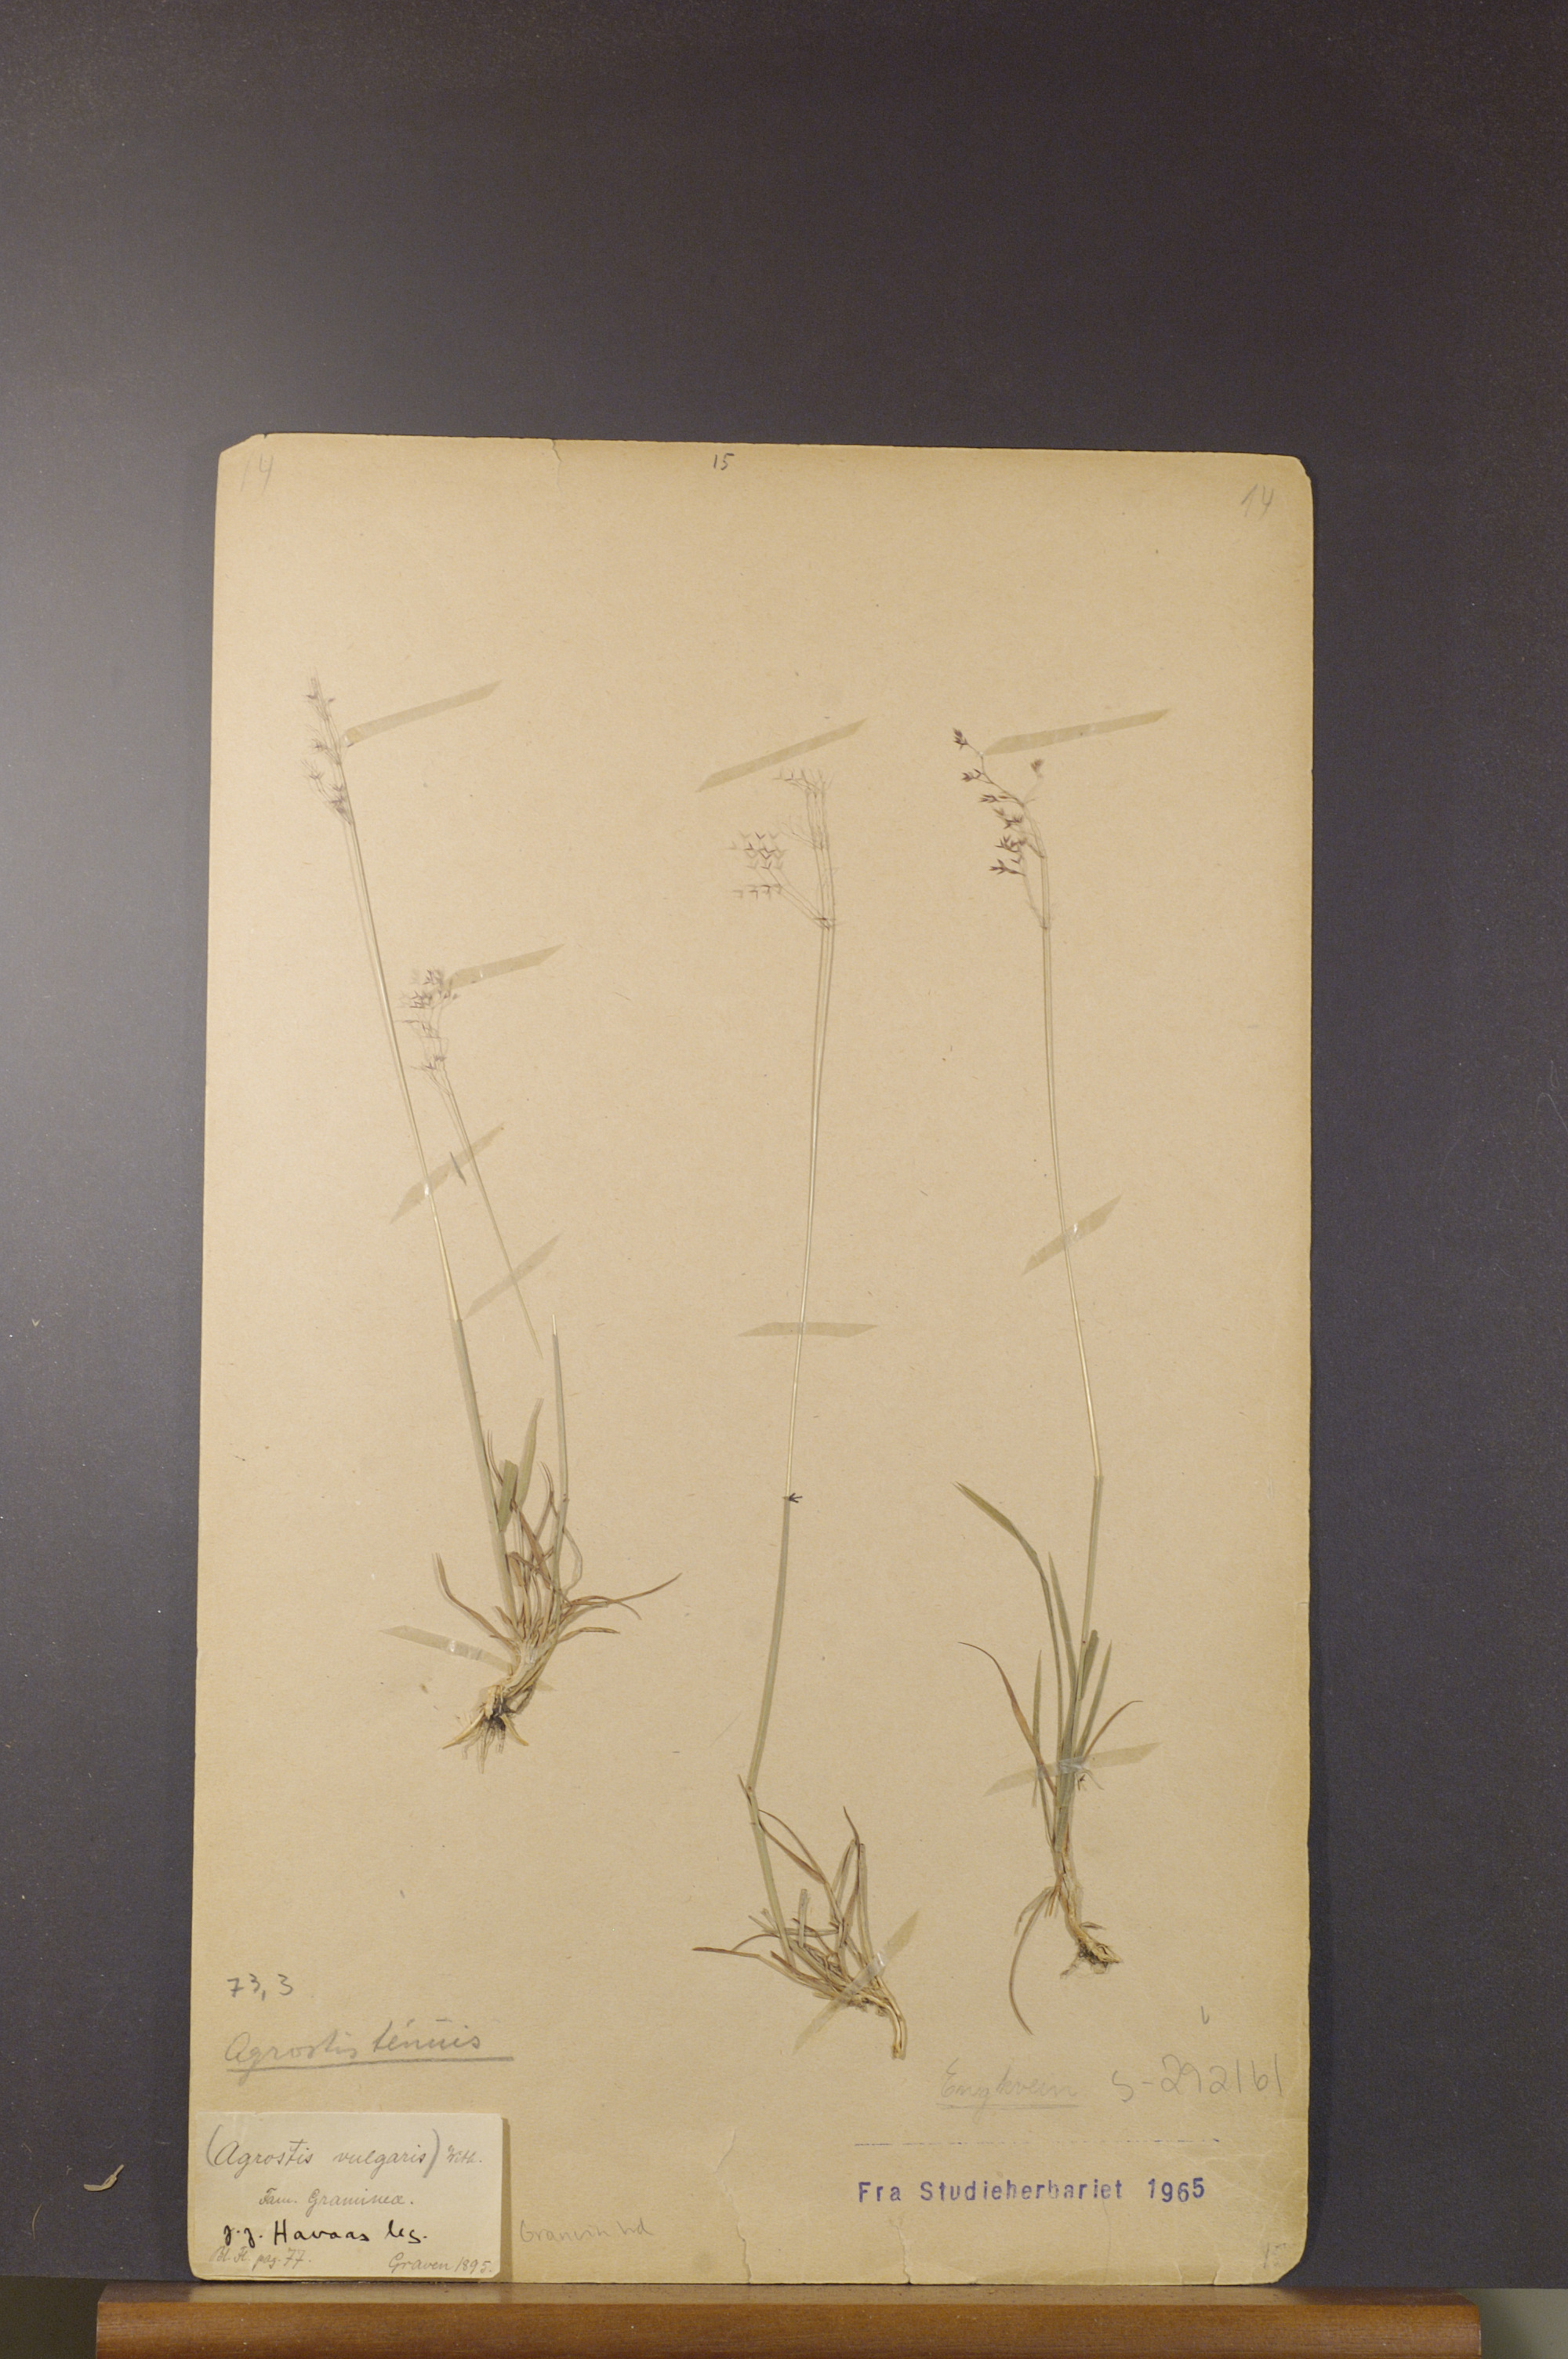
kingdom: Plantae
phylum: Tracheophyta
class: Liliopsida
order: Poales
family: Poaceae
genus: Agrostis
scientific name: Agrostis capillaris
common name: Colonial bentgrass
